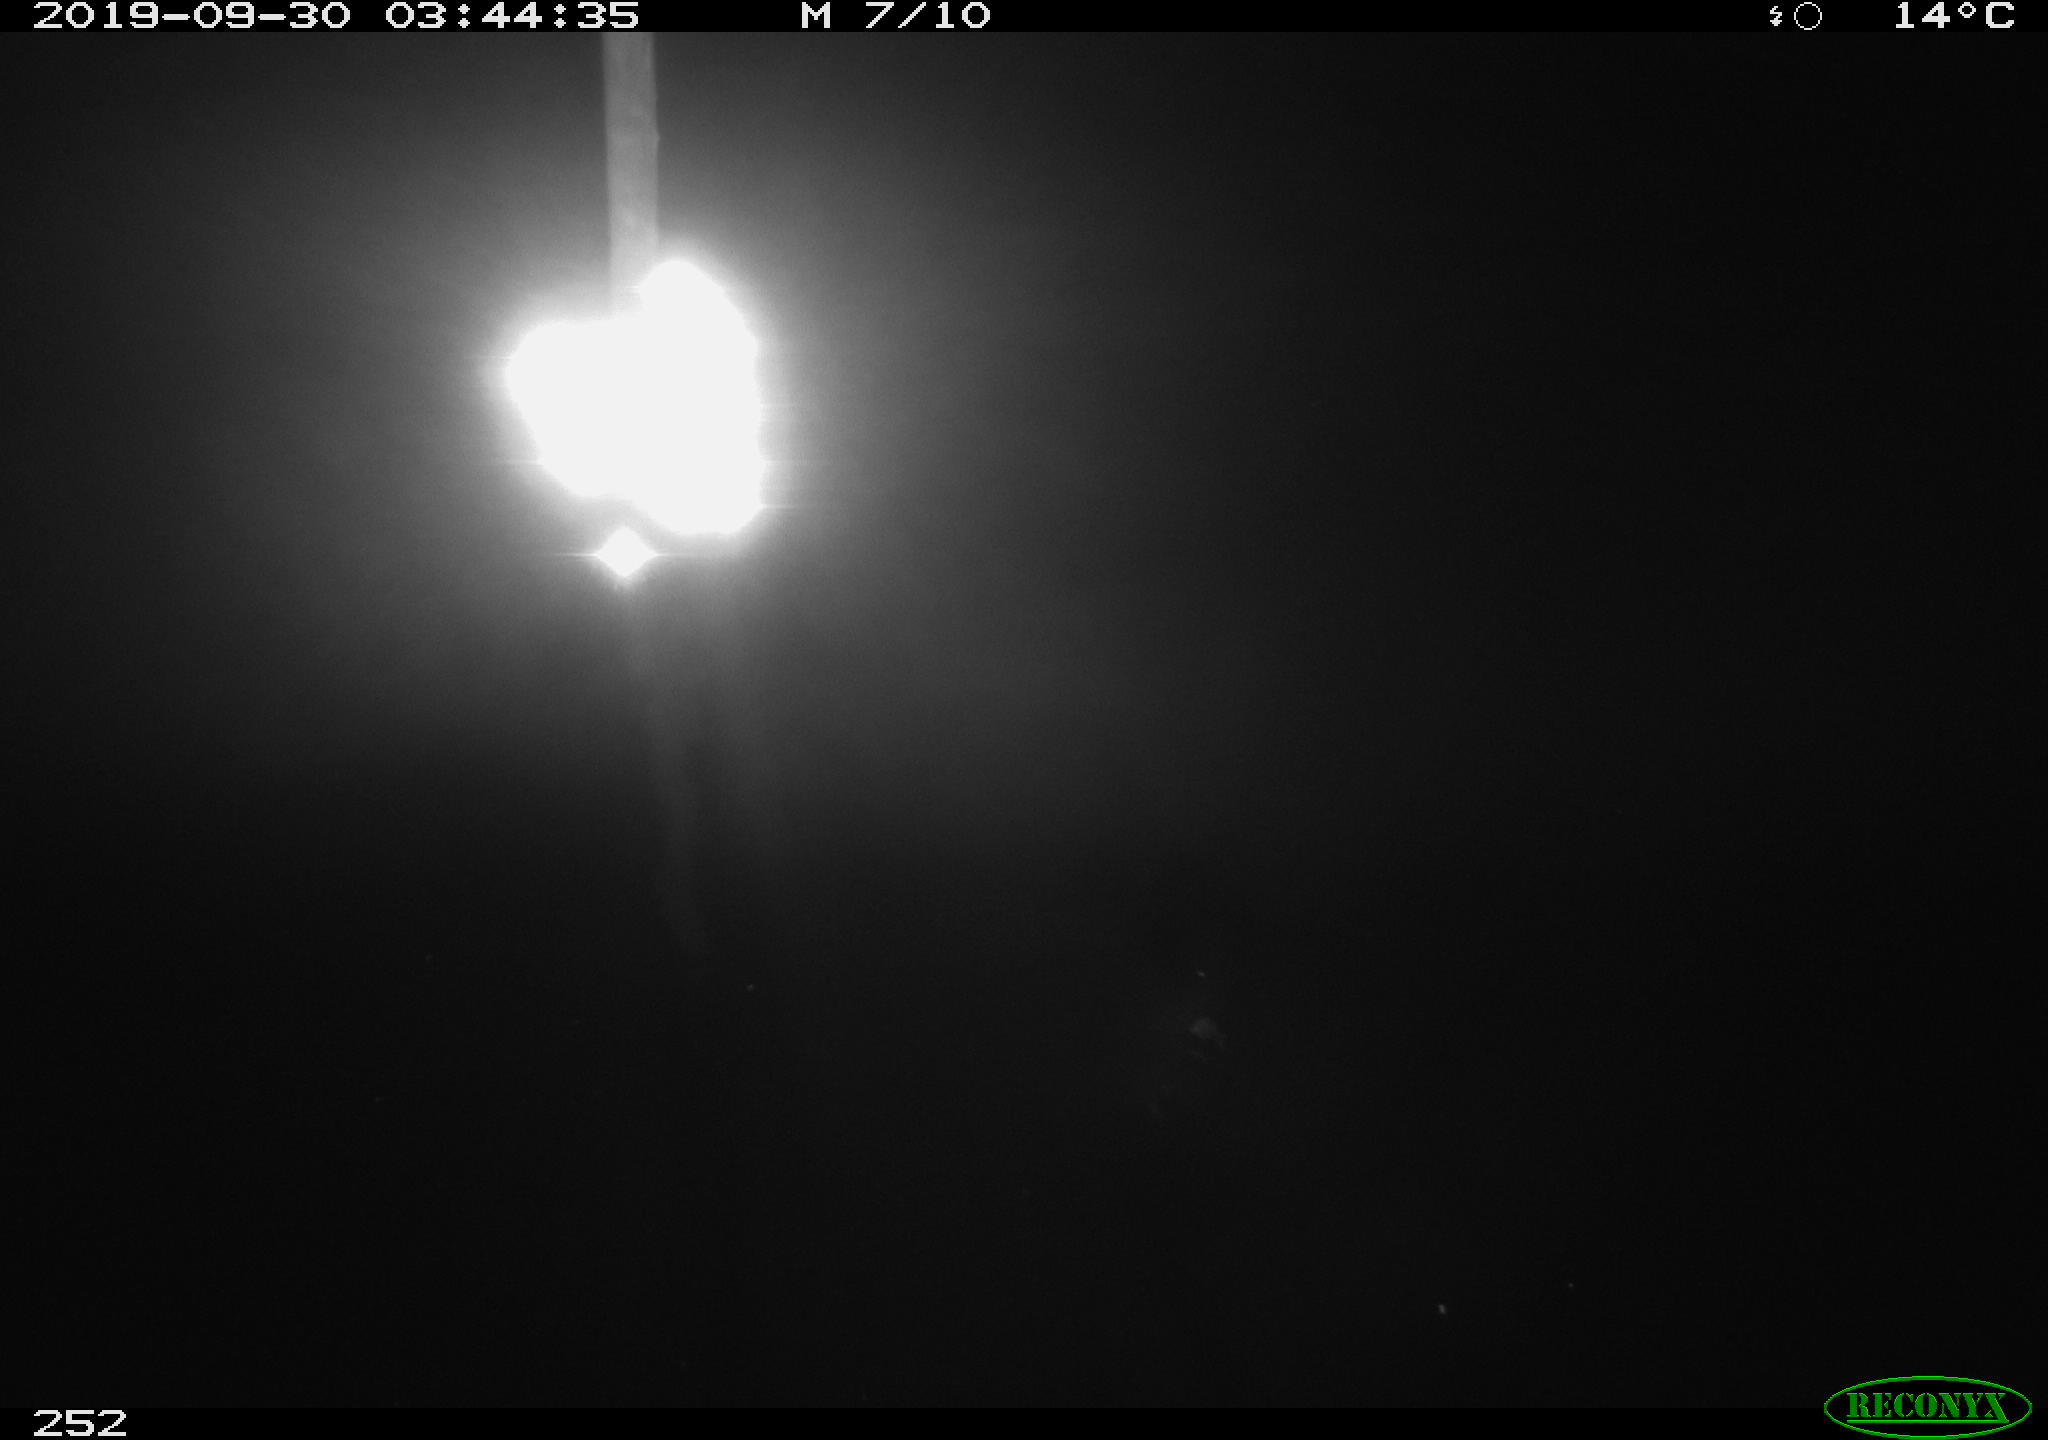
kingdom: Animalia
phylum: Chordata
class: Aves
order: Anseriformes
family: Anatidae
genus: Anas
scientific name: Anas platyrhynchos
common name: Mallard
